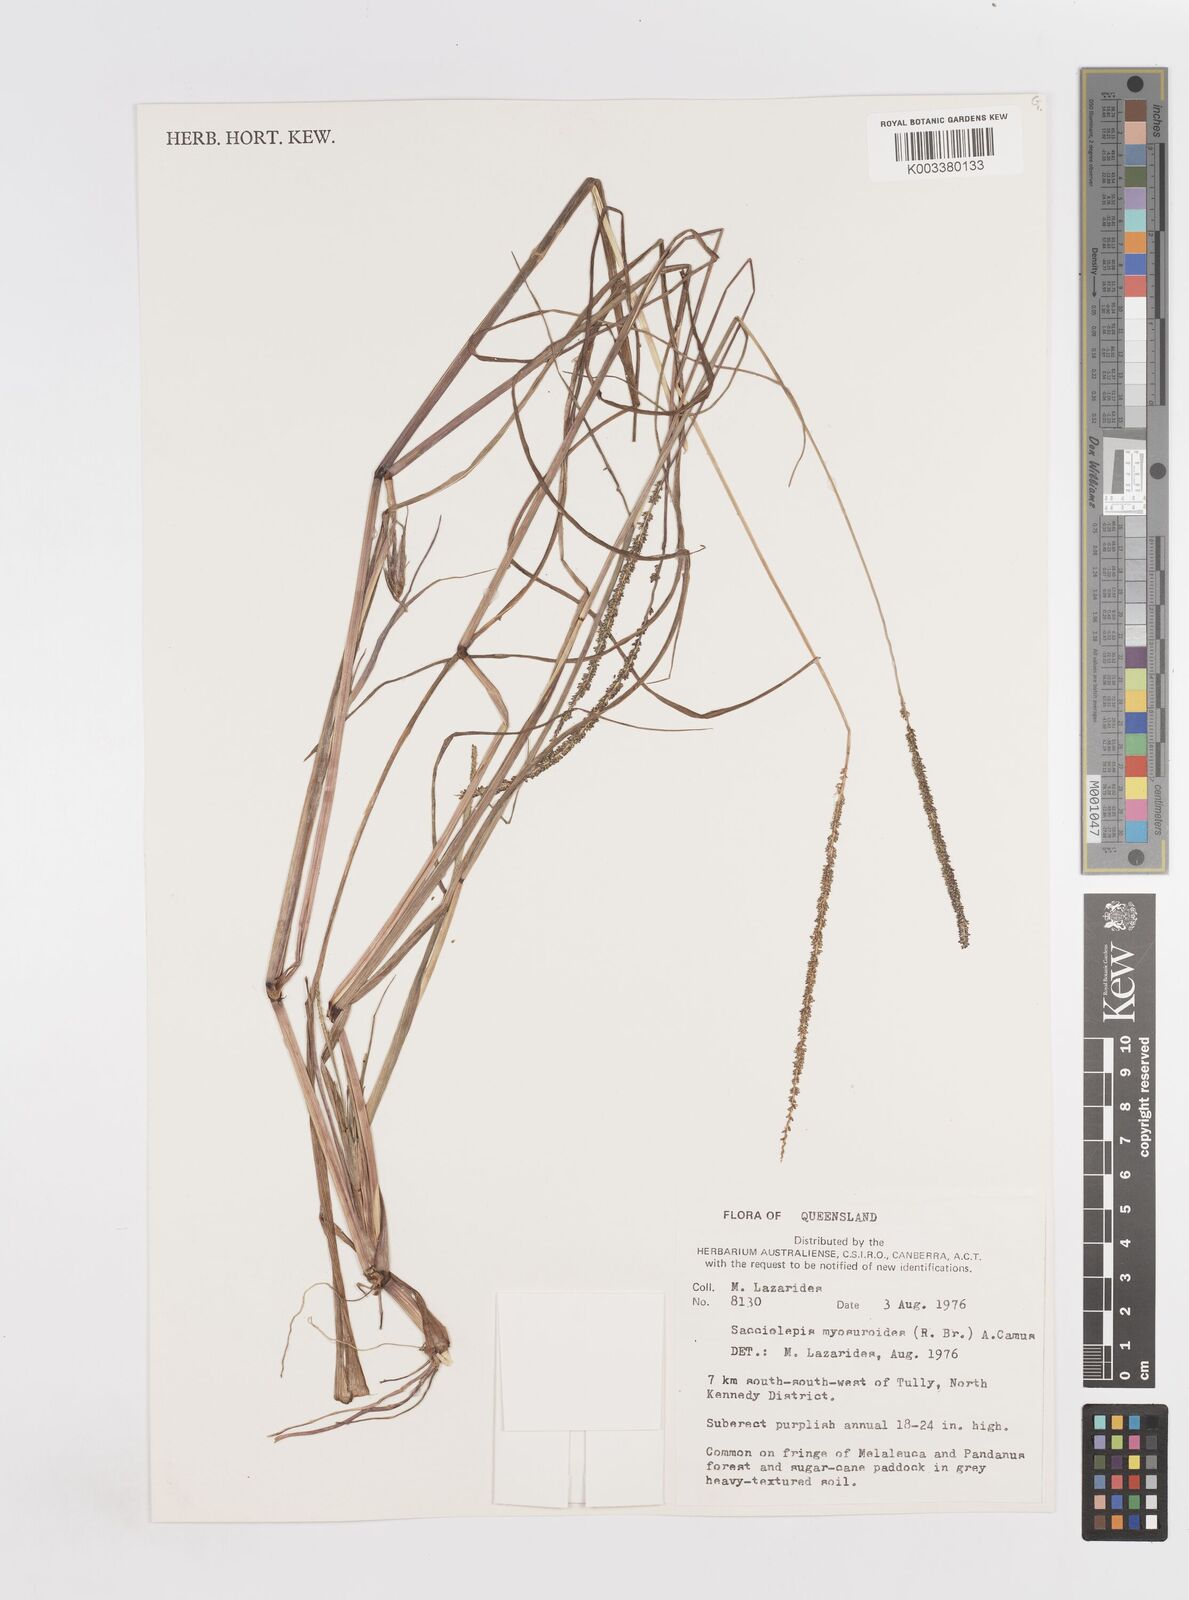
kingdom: Plantae
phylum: Tracheophyta
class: Liliopsida
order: Poales
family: Poaceae
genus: Sacciolepis
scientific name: Sacciolepis myosuroides
